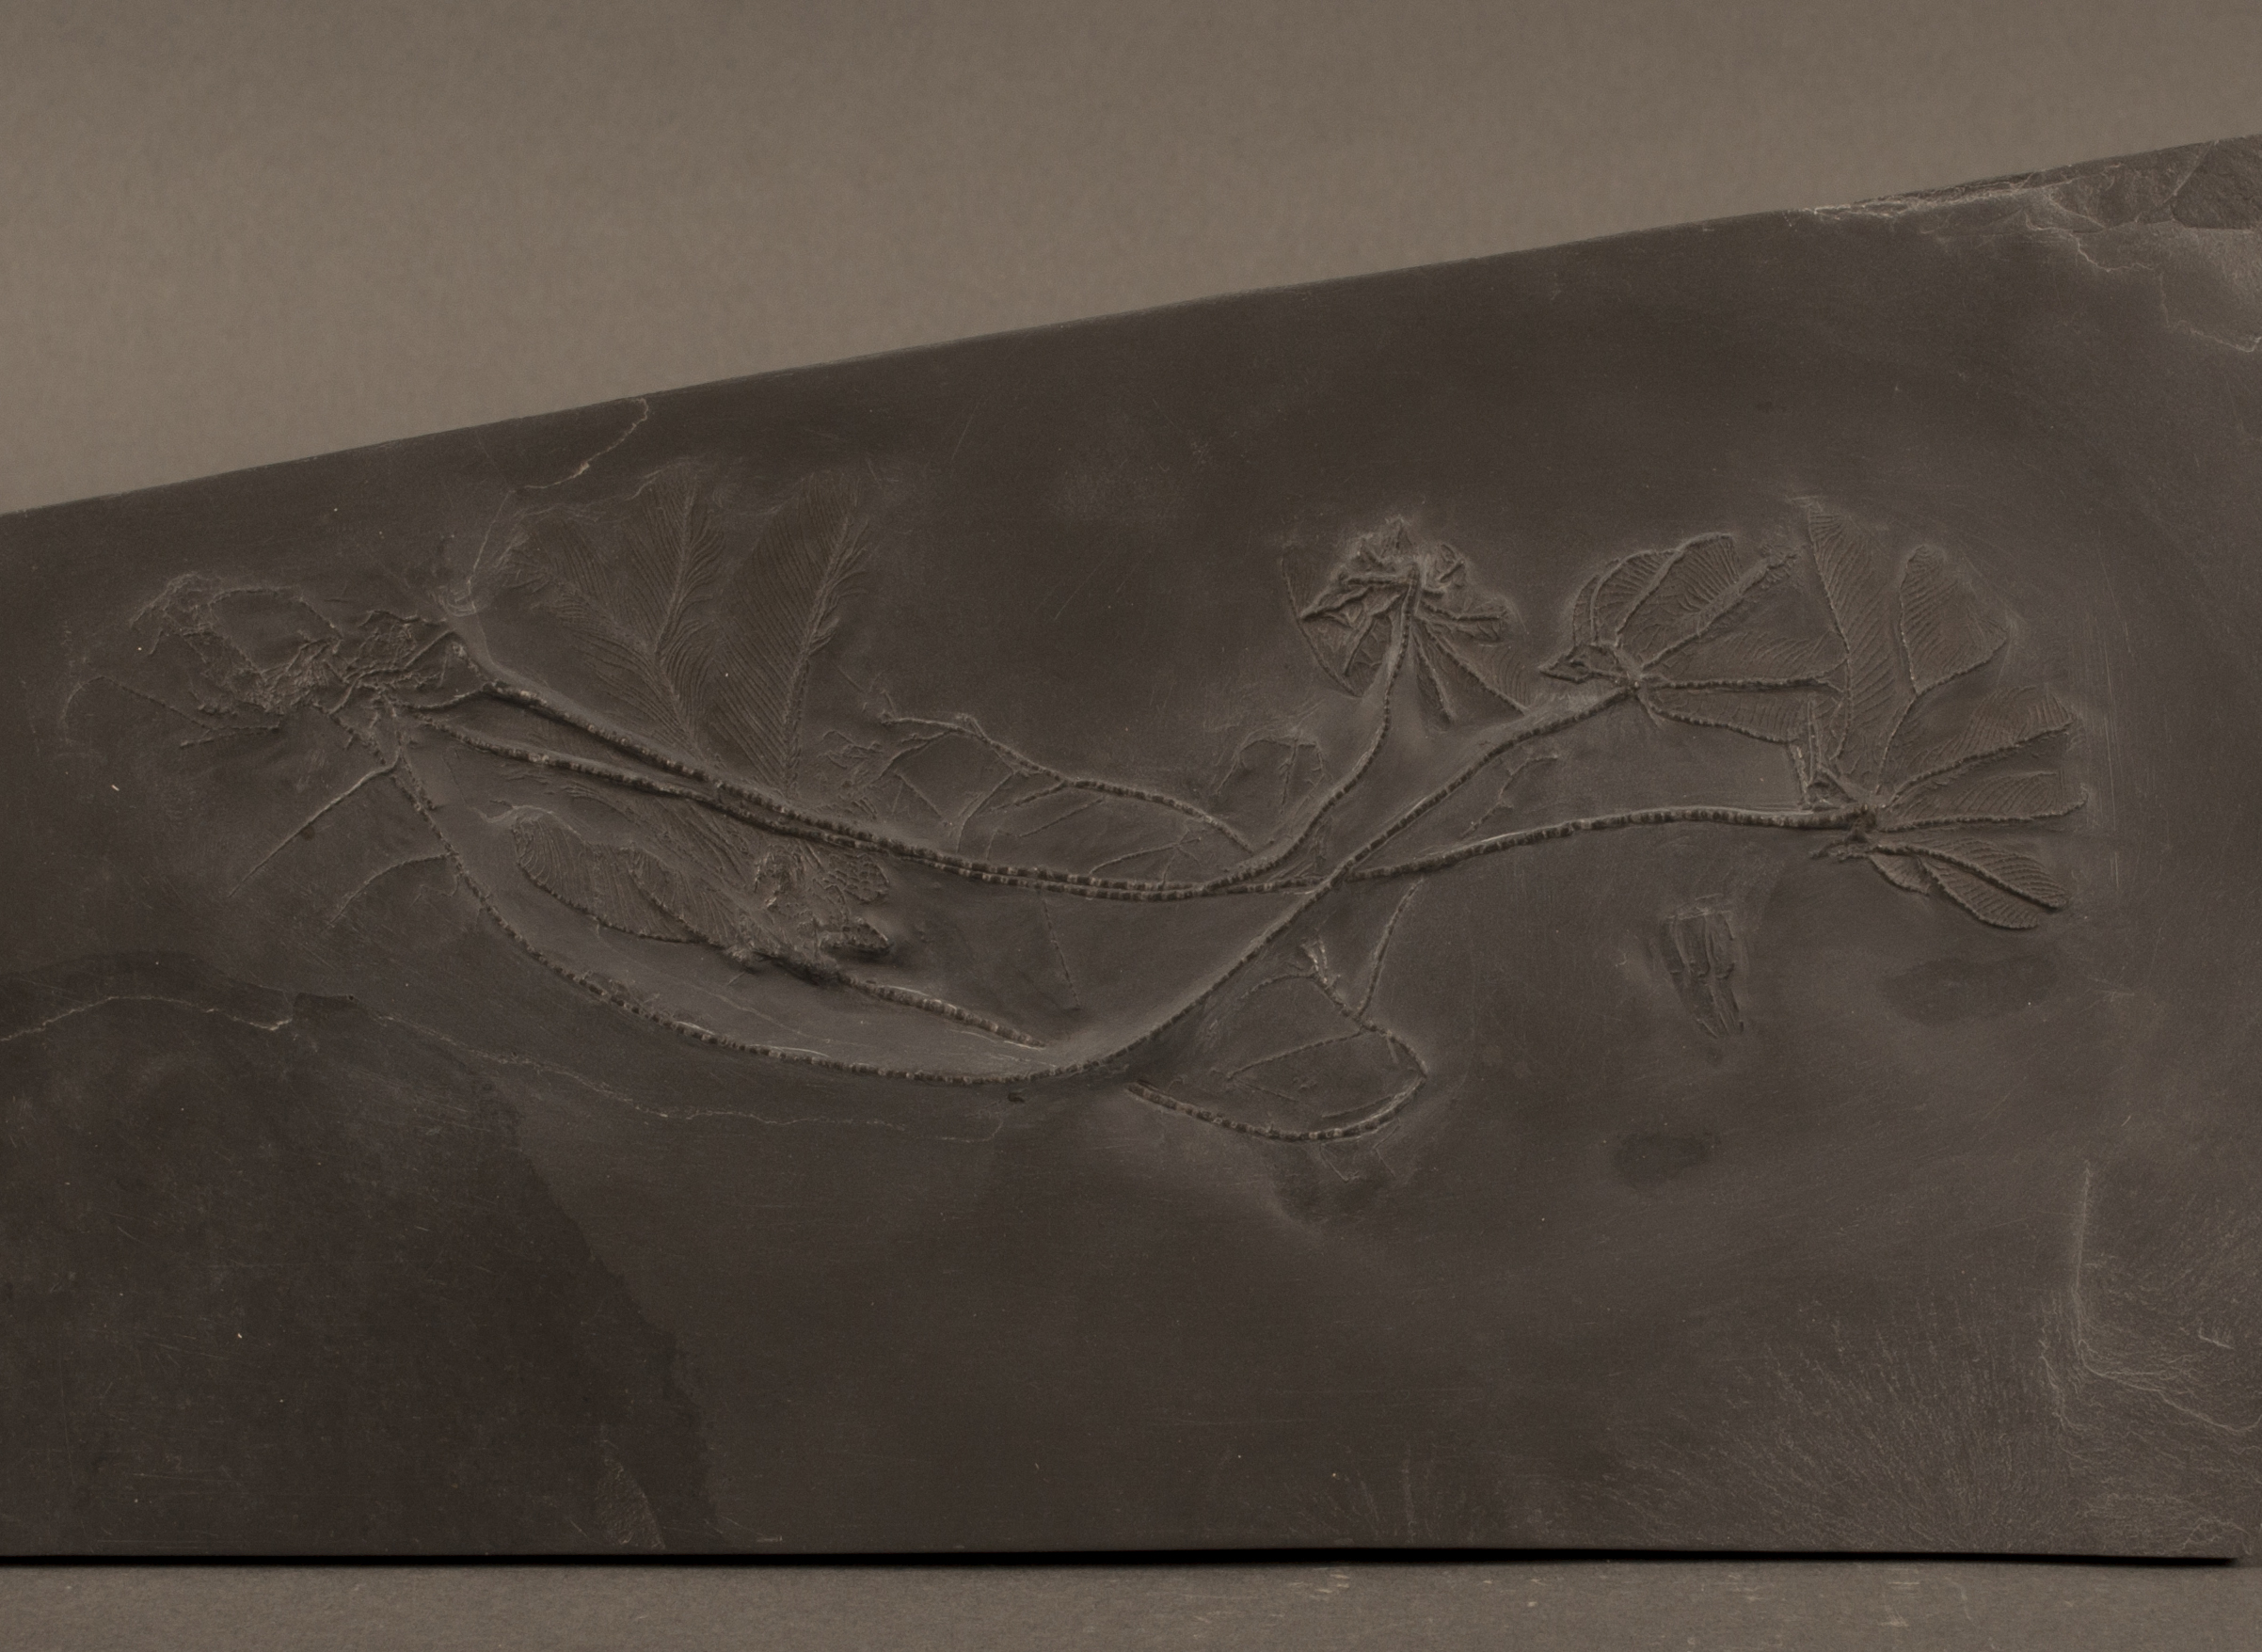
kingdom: Animalia
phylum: Echinodermata
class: Crinoidea
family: Hapalocrinidae
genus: Hapalocrinus
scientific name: Hapalocrinus
